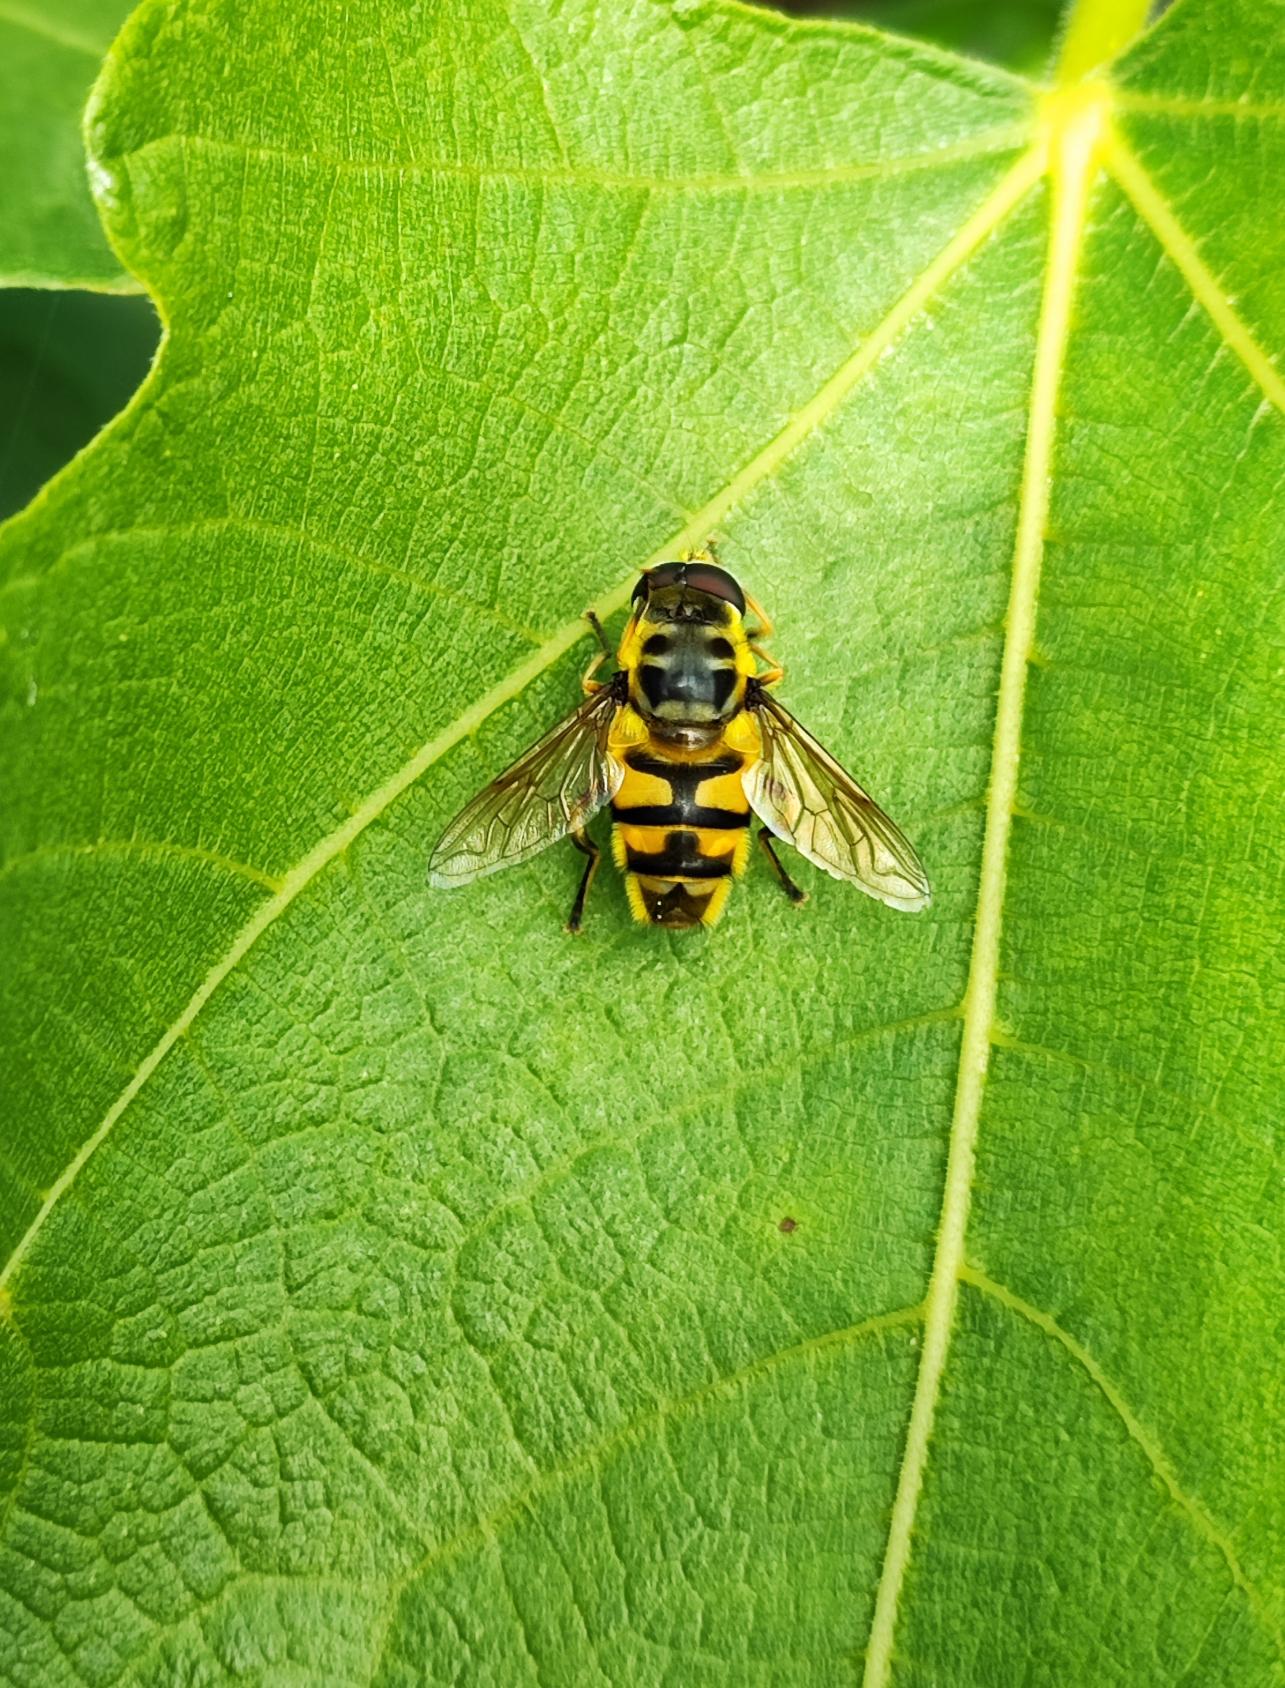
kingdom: Animalia
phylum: Arthropoda
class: Insecta
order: Diptera
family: Syrphidae
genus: Myathropa
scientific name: Myathropa florea
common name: Dødningehoved-svirreflue
